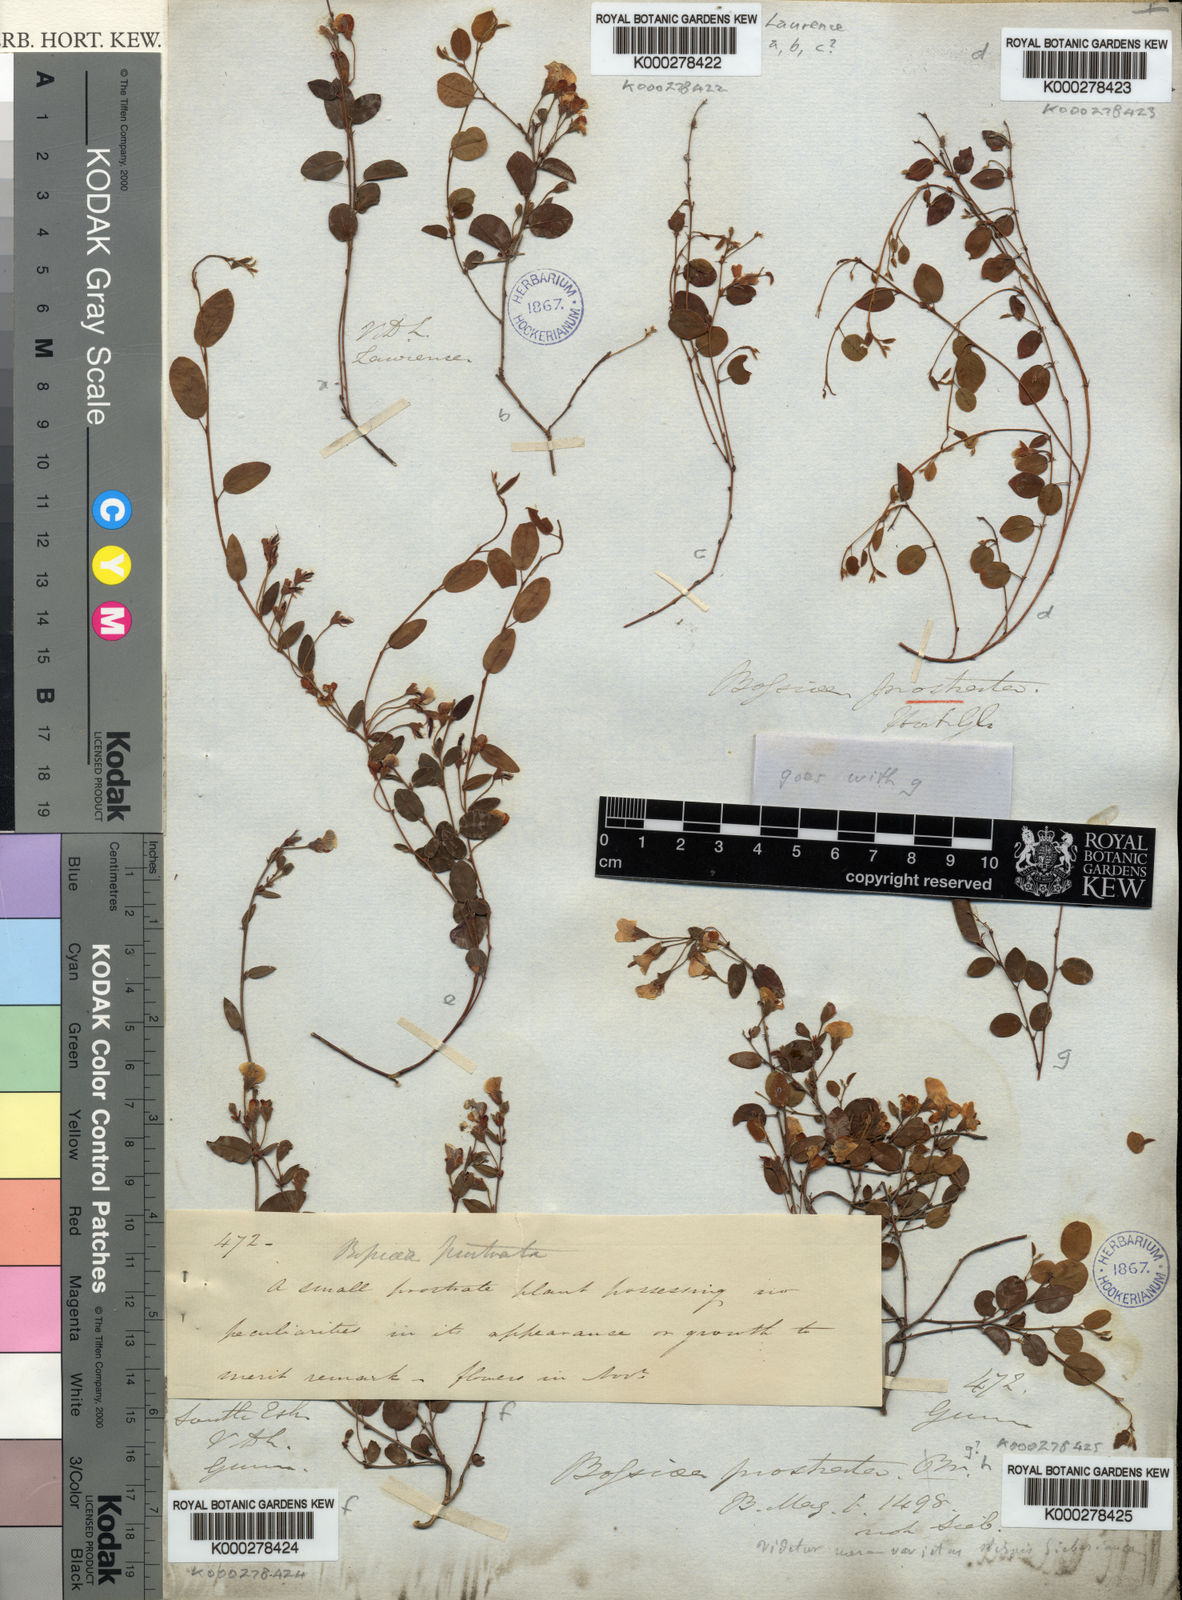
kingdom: Plantae
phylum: Tracheophyta
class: Magnoliopsida
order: Fabales
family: Fabaceae
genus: Bossiaea
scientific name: Bossiaea prostrata
